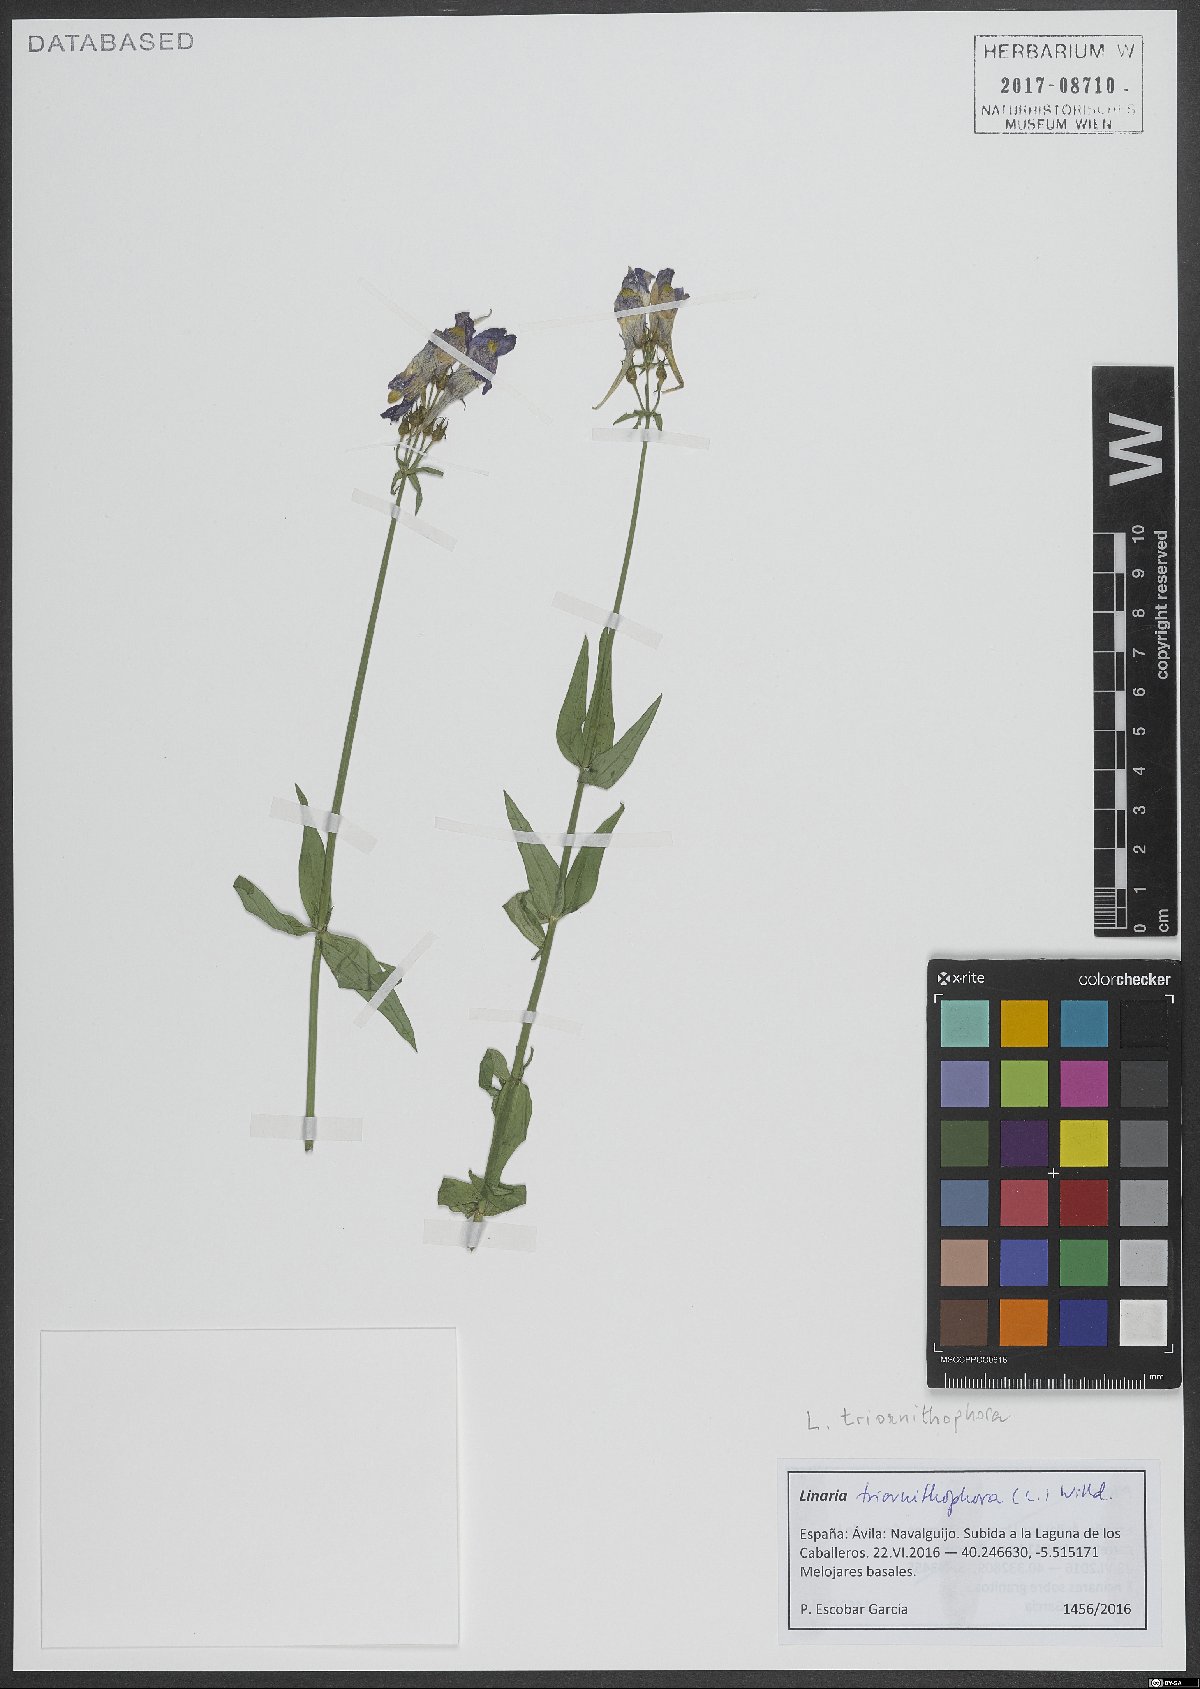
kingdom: Plantae
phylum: Tracheophyta
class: Magnoliopsida
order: Lamiales
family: Plantaginaceae
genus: Linaria
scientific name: Linaria triornithophora
